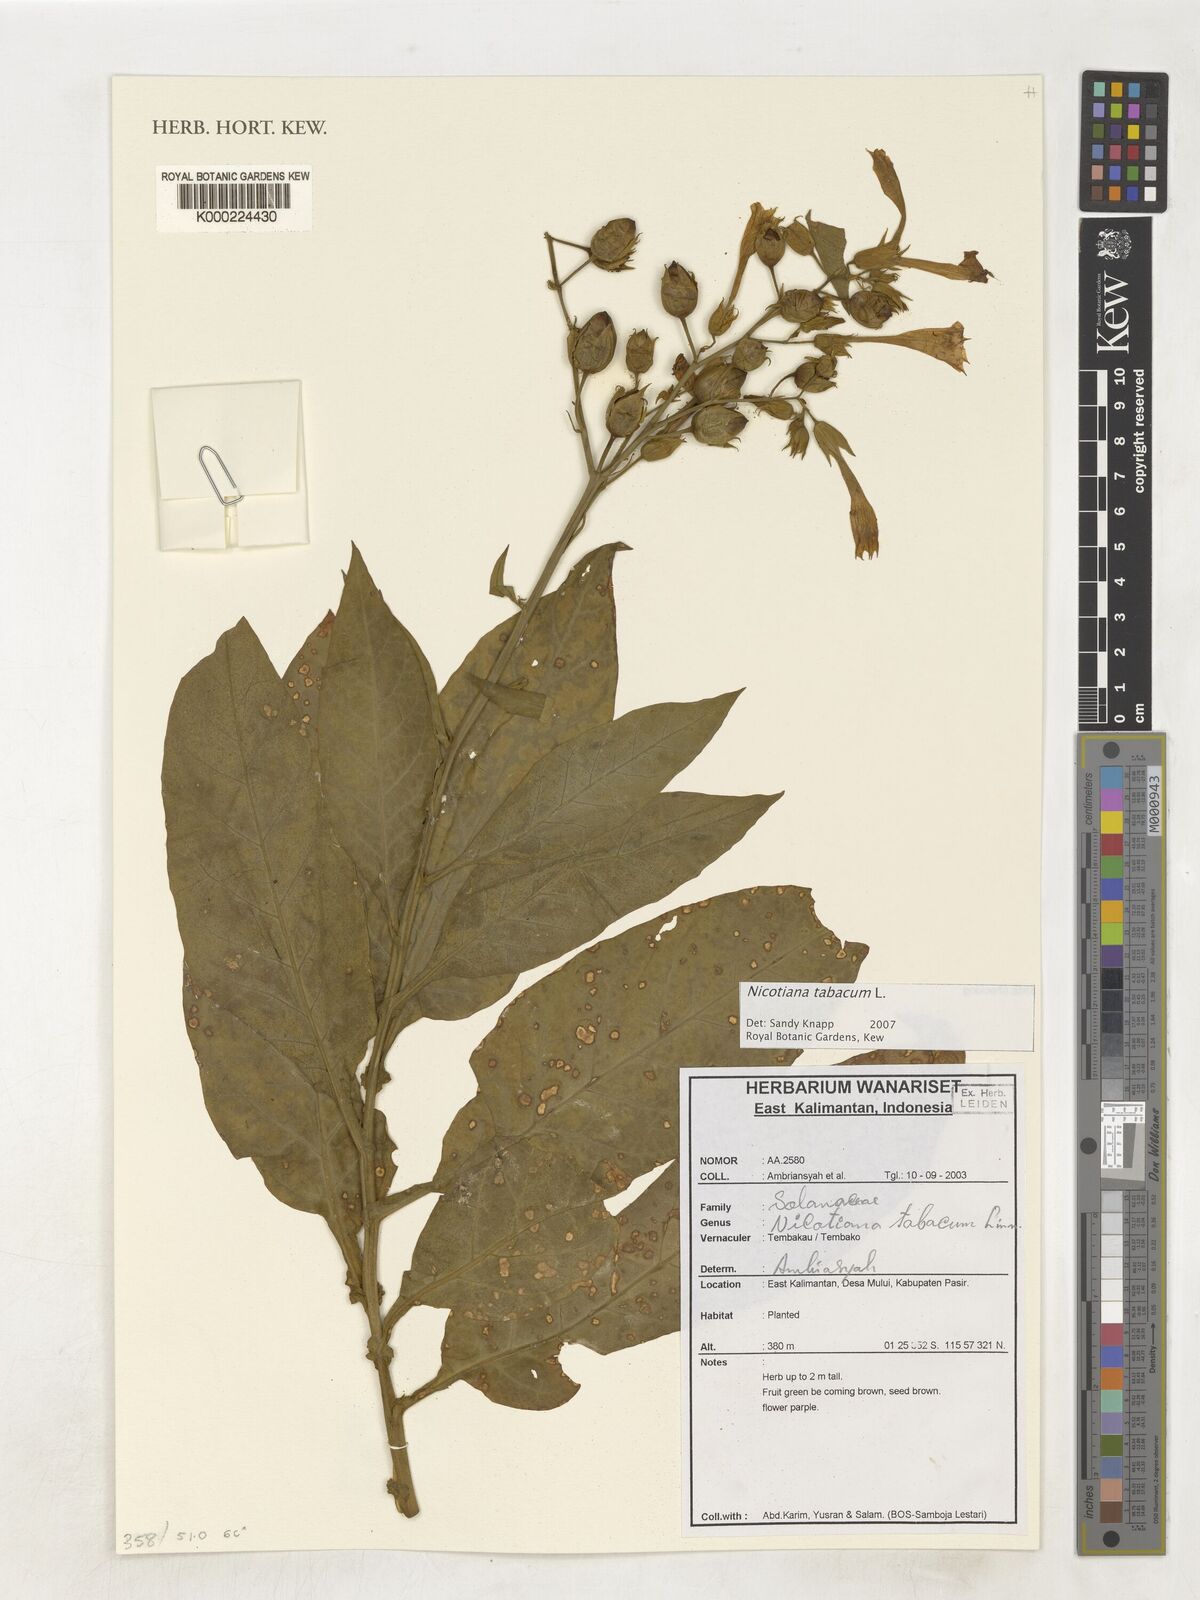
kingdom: Plantae
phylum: Tracheophyta
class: Magnoliopsida
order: Solanales
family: Solanaceae
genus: Nicotiana
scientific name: Nicotiana tabacum
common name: Tobacco
